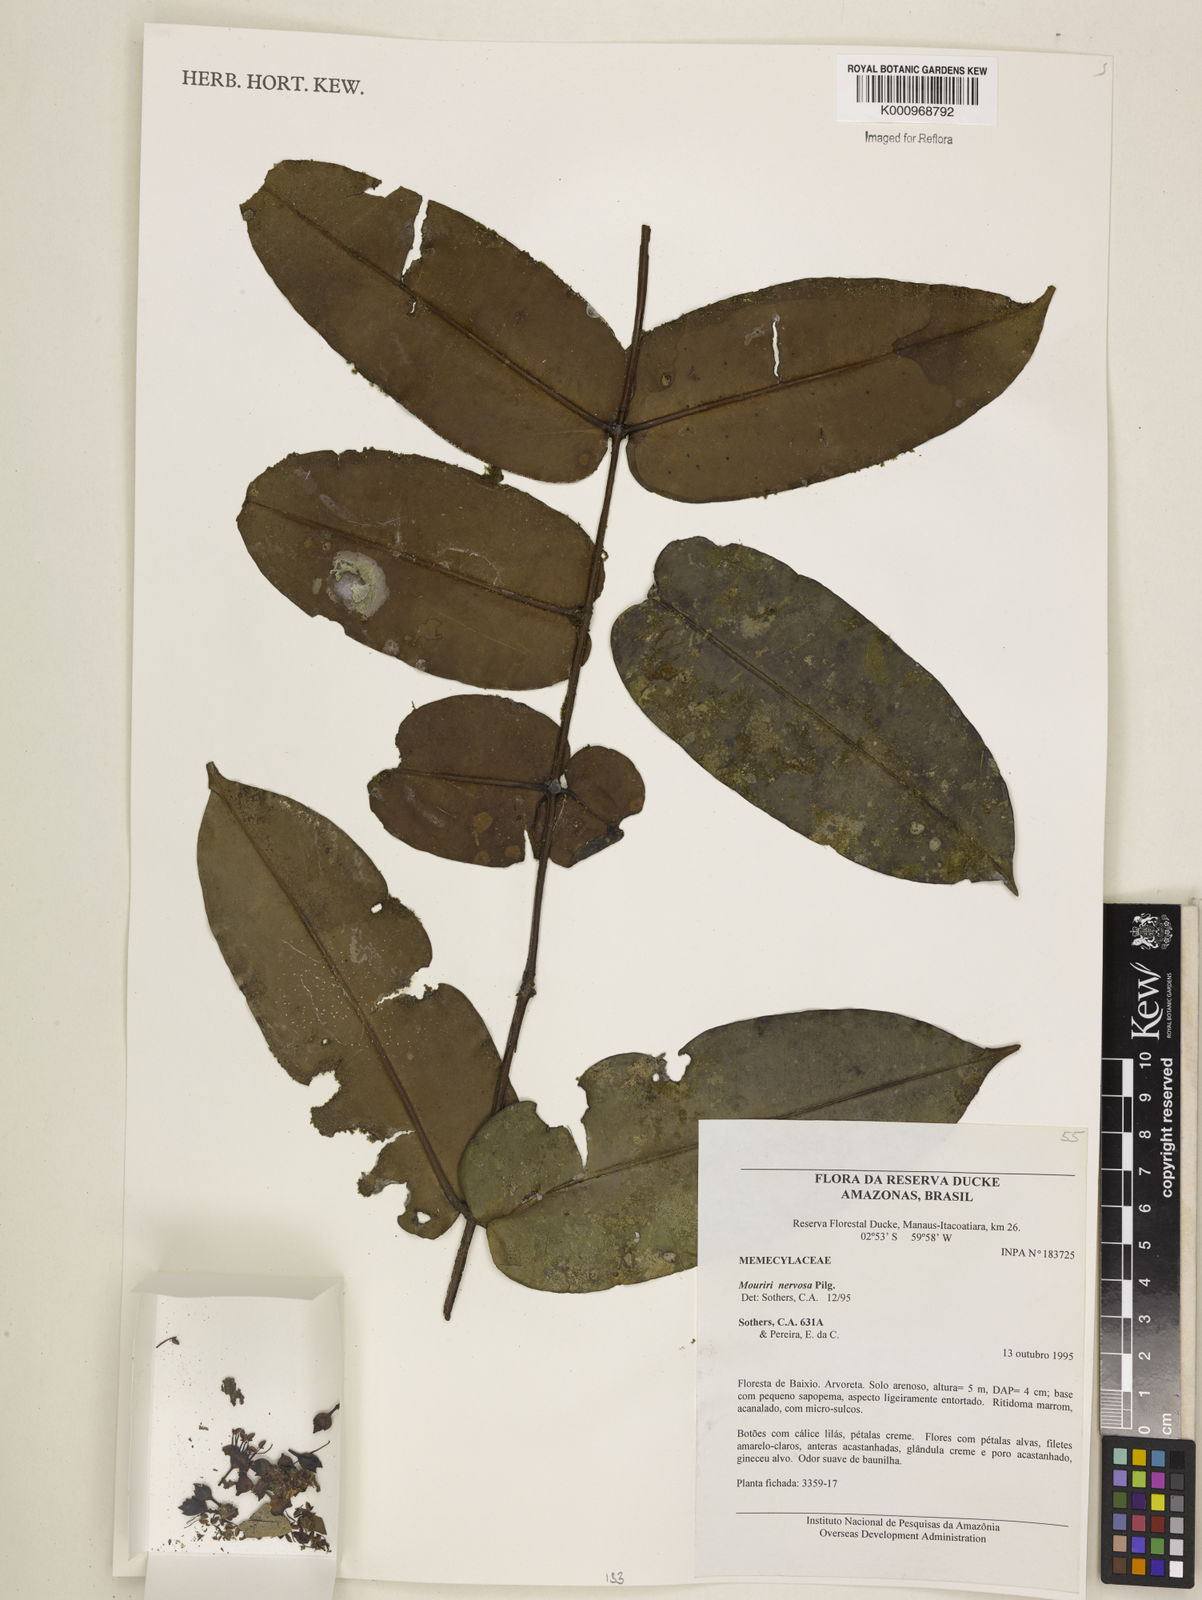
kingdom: Plantae
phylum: Tracheophyta
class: Magnoliopsida
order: Myrtales
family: Melastomataceae
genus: Mouriri
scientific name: Mouriri sideroxylon
